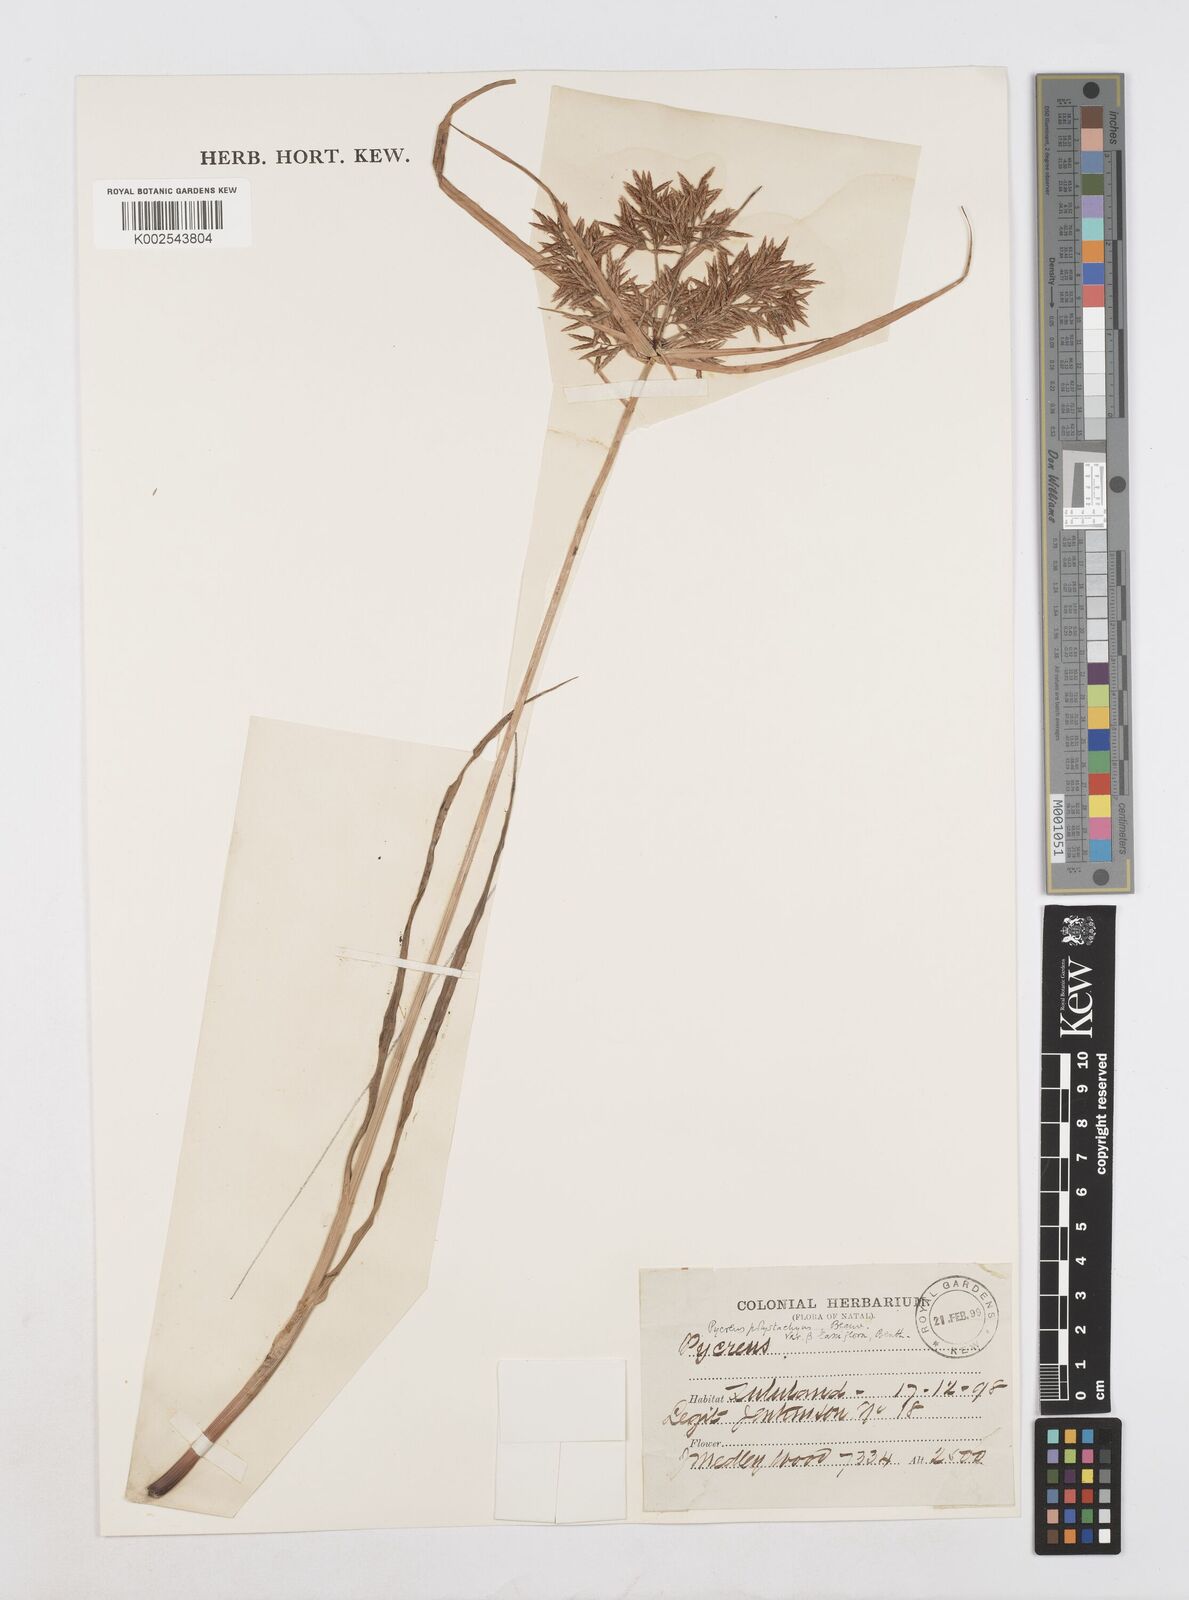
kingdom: Plantae
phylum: Tracheophyta
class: Liliopsida
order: Poales
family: Cyperaceae
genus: Cyperus
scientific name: Cyperus intactus
